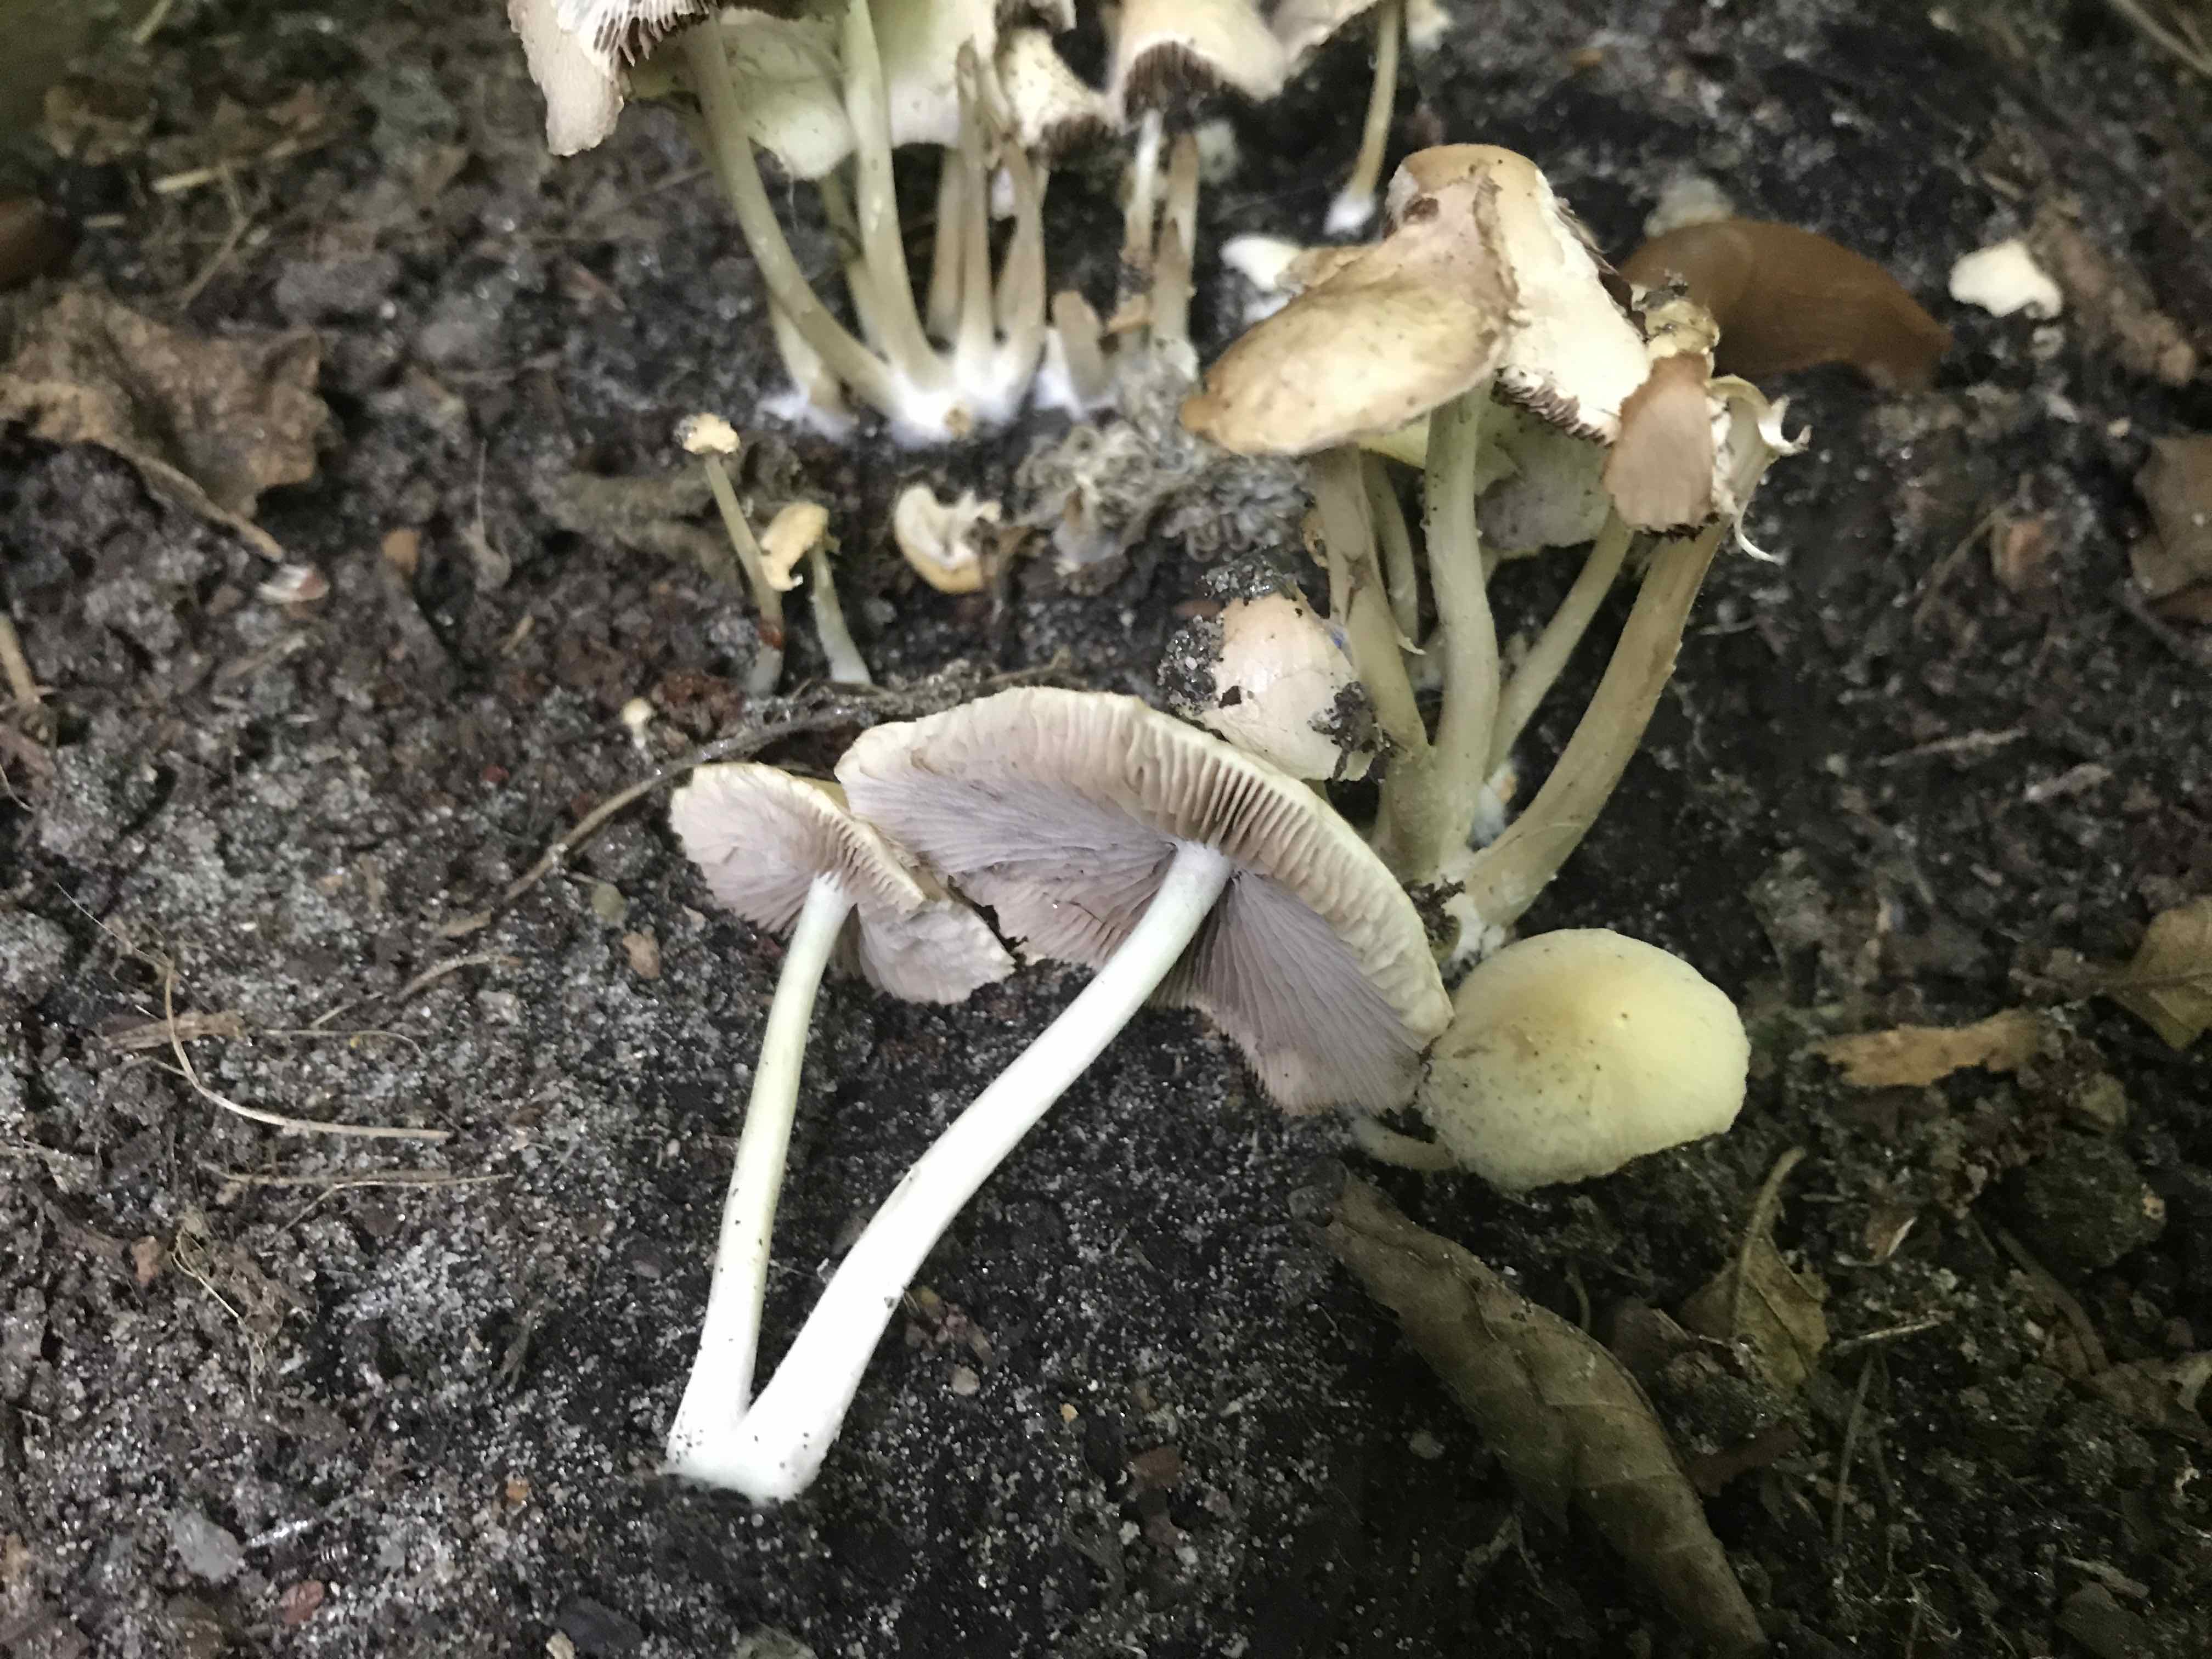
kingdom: Fungi
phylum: Basidiomycota
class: Agaricomycetes
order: Agaricales
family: Psathyrellaceae
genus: Candolleomyces
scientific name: Candolleomyces candolleanus
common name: Candolles mørkhat
